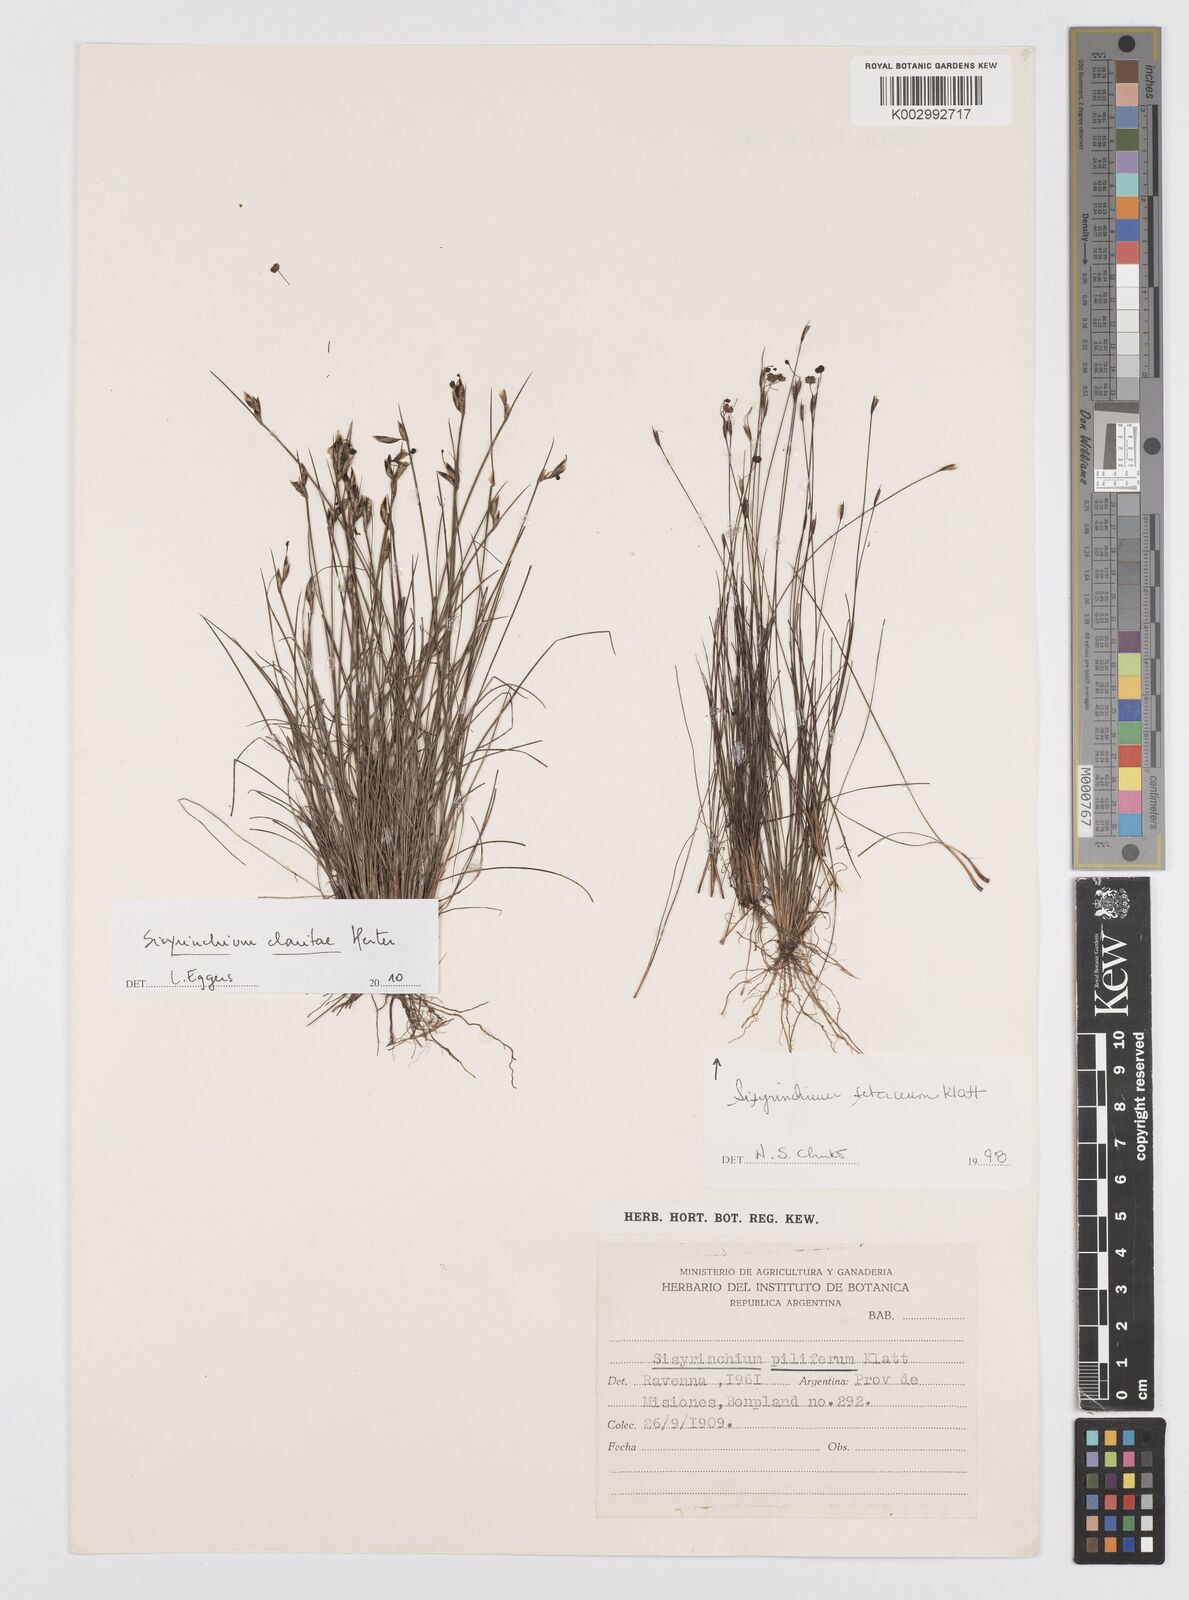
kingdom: Plantae
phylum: Tracheophyta
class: Liliopsida
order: Asparagales
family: Iridaceae
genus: Sisyrinchium
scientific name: Sisyrinchium setaceum
